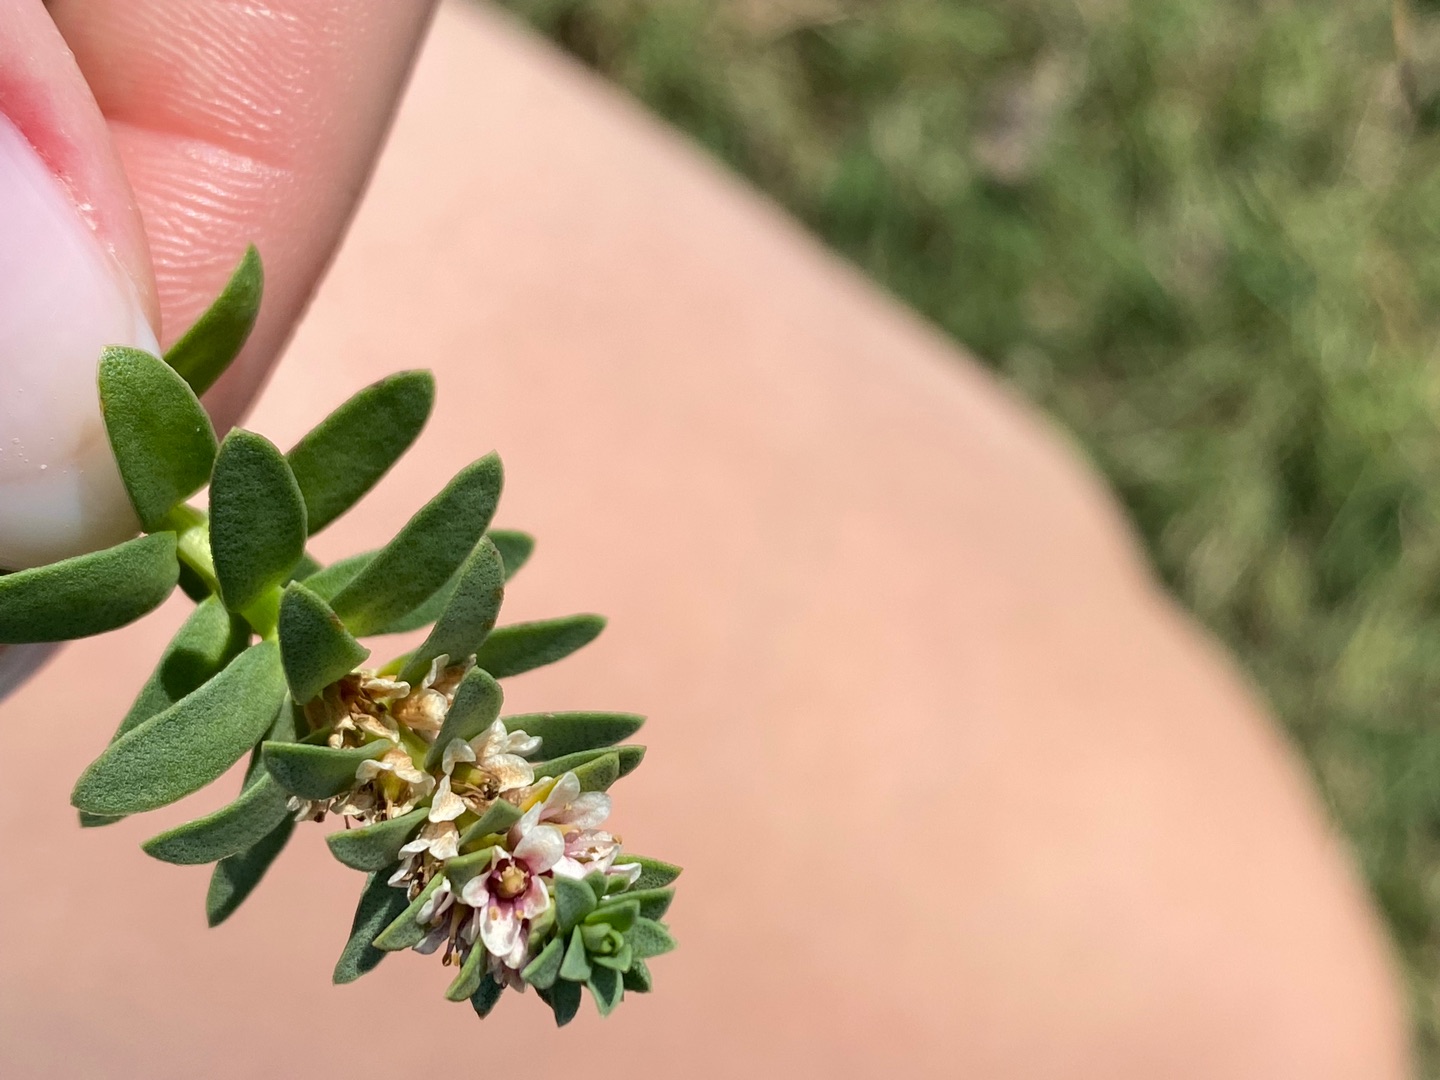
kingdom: Plantae
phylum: Tracheophyta
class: Magnoliopsida
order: Ericales
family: Primulaceae
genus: Lysimachia
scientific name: Lysimachia maritima
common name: Sandkryb
